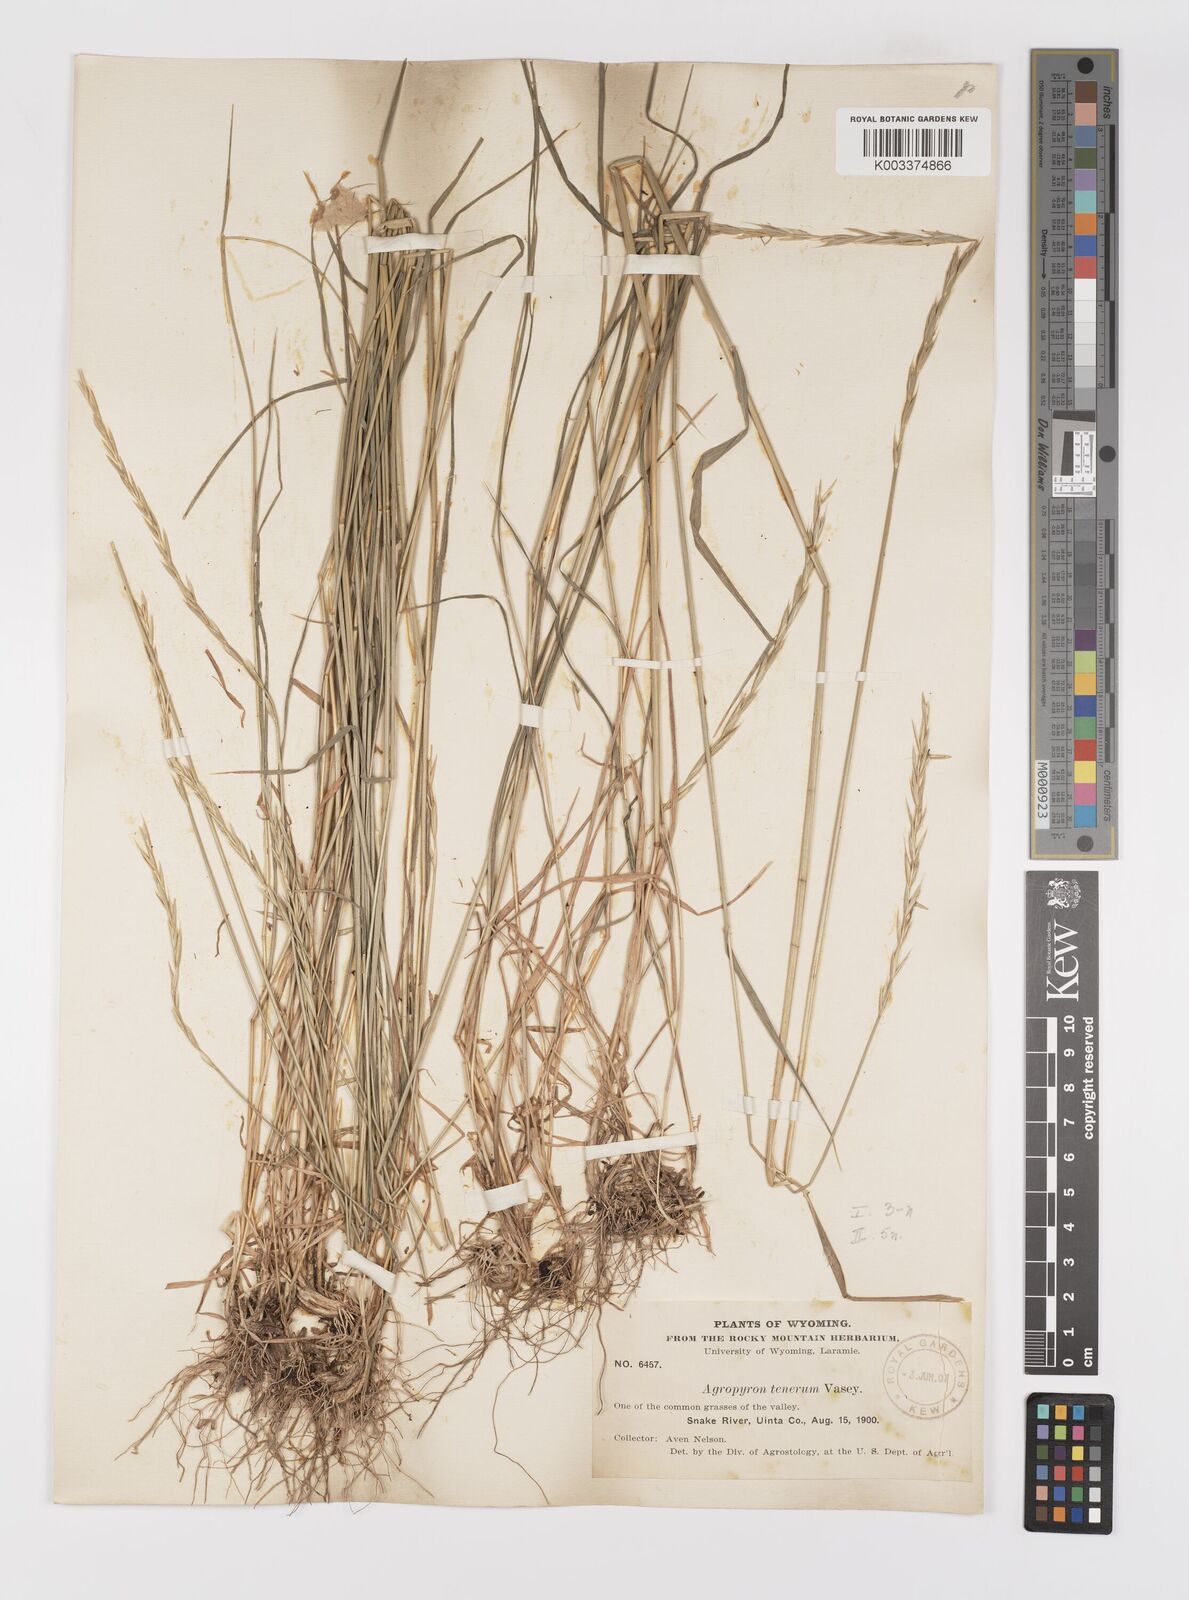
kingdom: Plantae
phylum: Tracheophyta
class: Liliopsida
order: Poales
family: Poaceae
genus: Elymus
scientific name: Elymus violaceus
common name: Arctic wheatgrass
